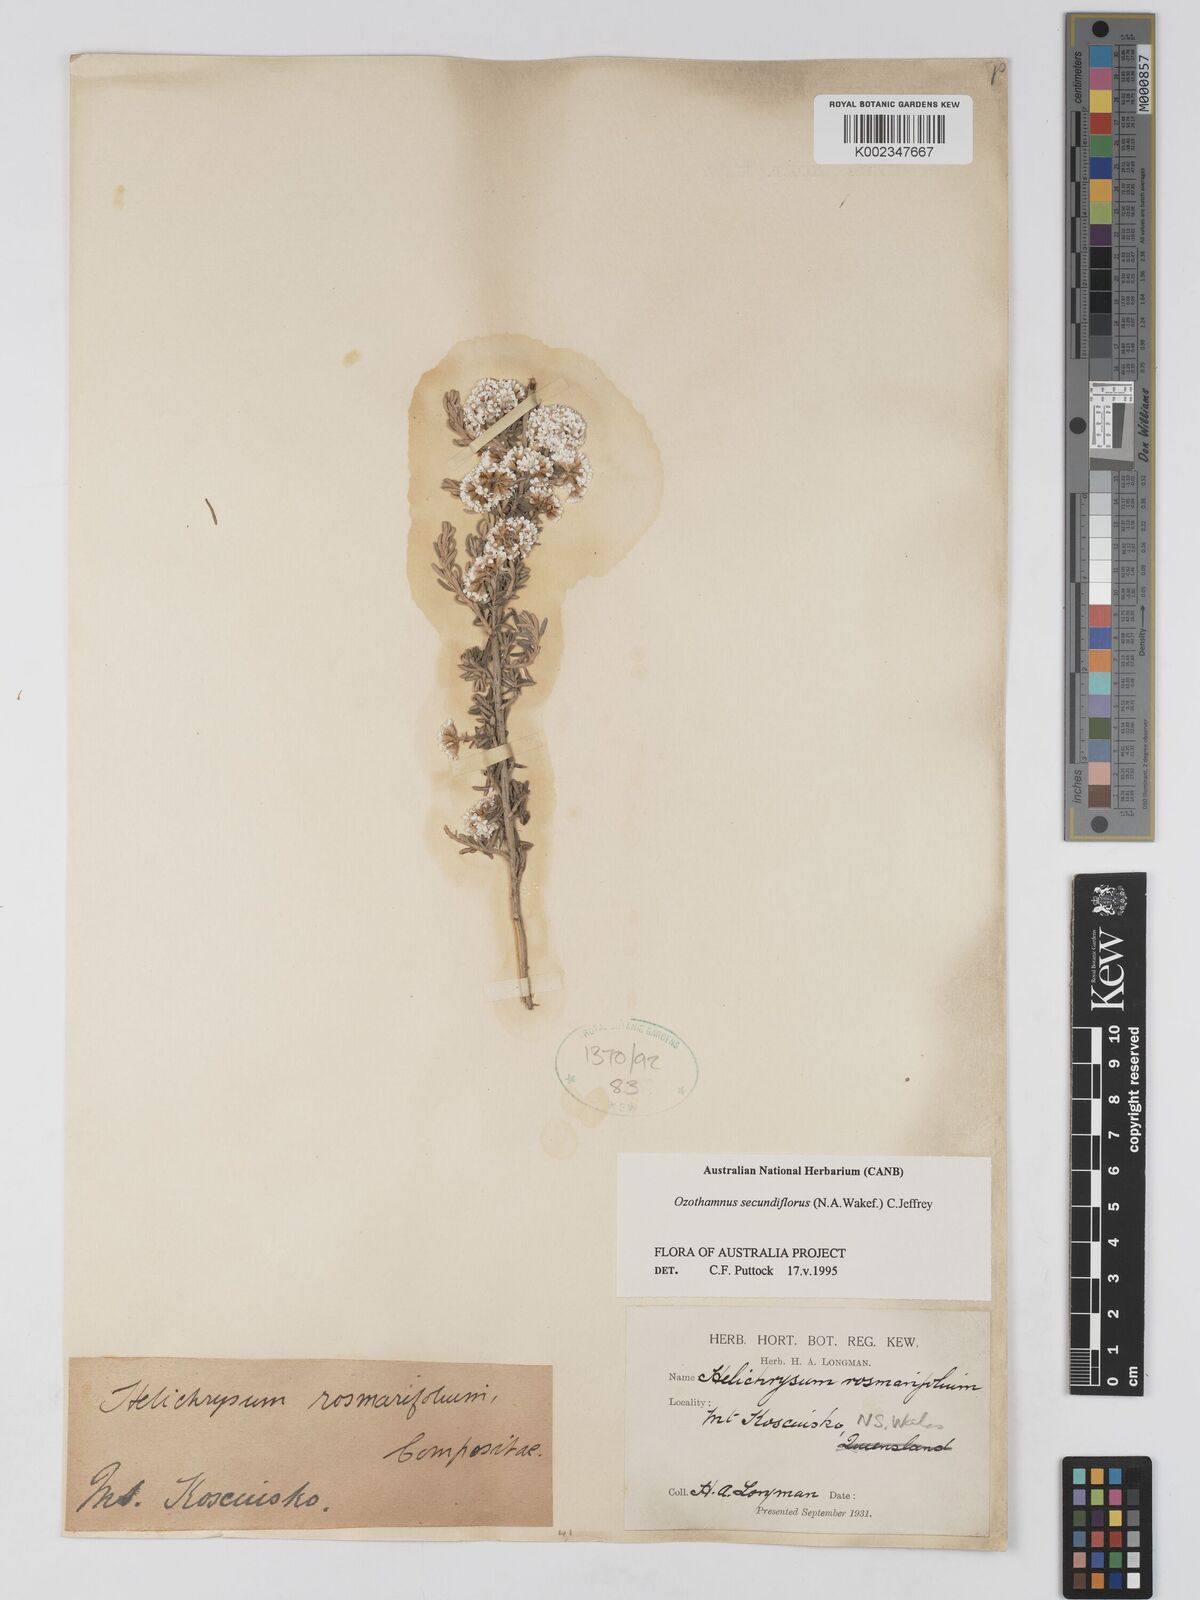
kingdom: Plantae
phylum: Tracheophyta
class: Magnoliopsida
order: Asterales
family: Asteraceae
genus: Ozothamnus
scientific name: Ozothamnus secundiflorus
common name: Cascade everlasting
